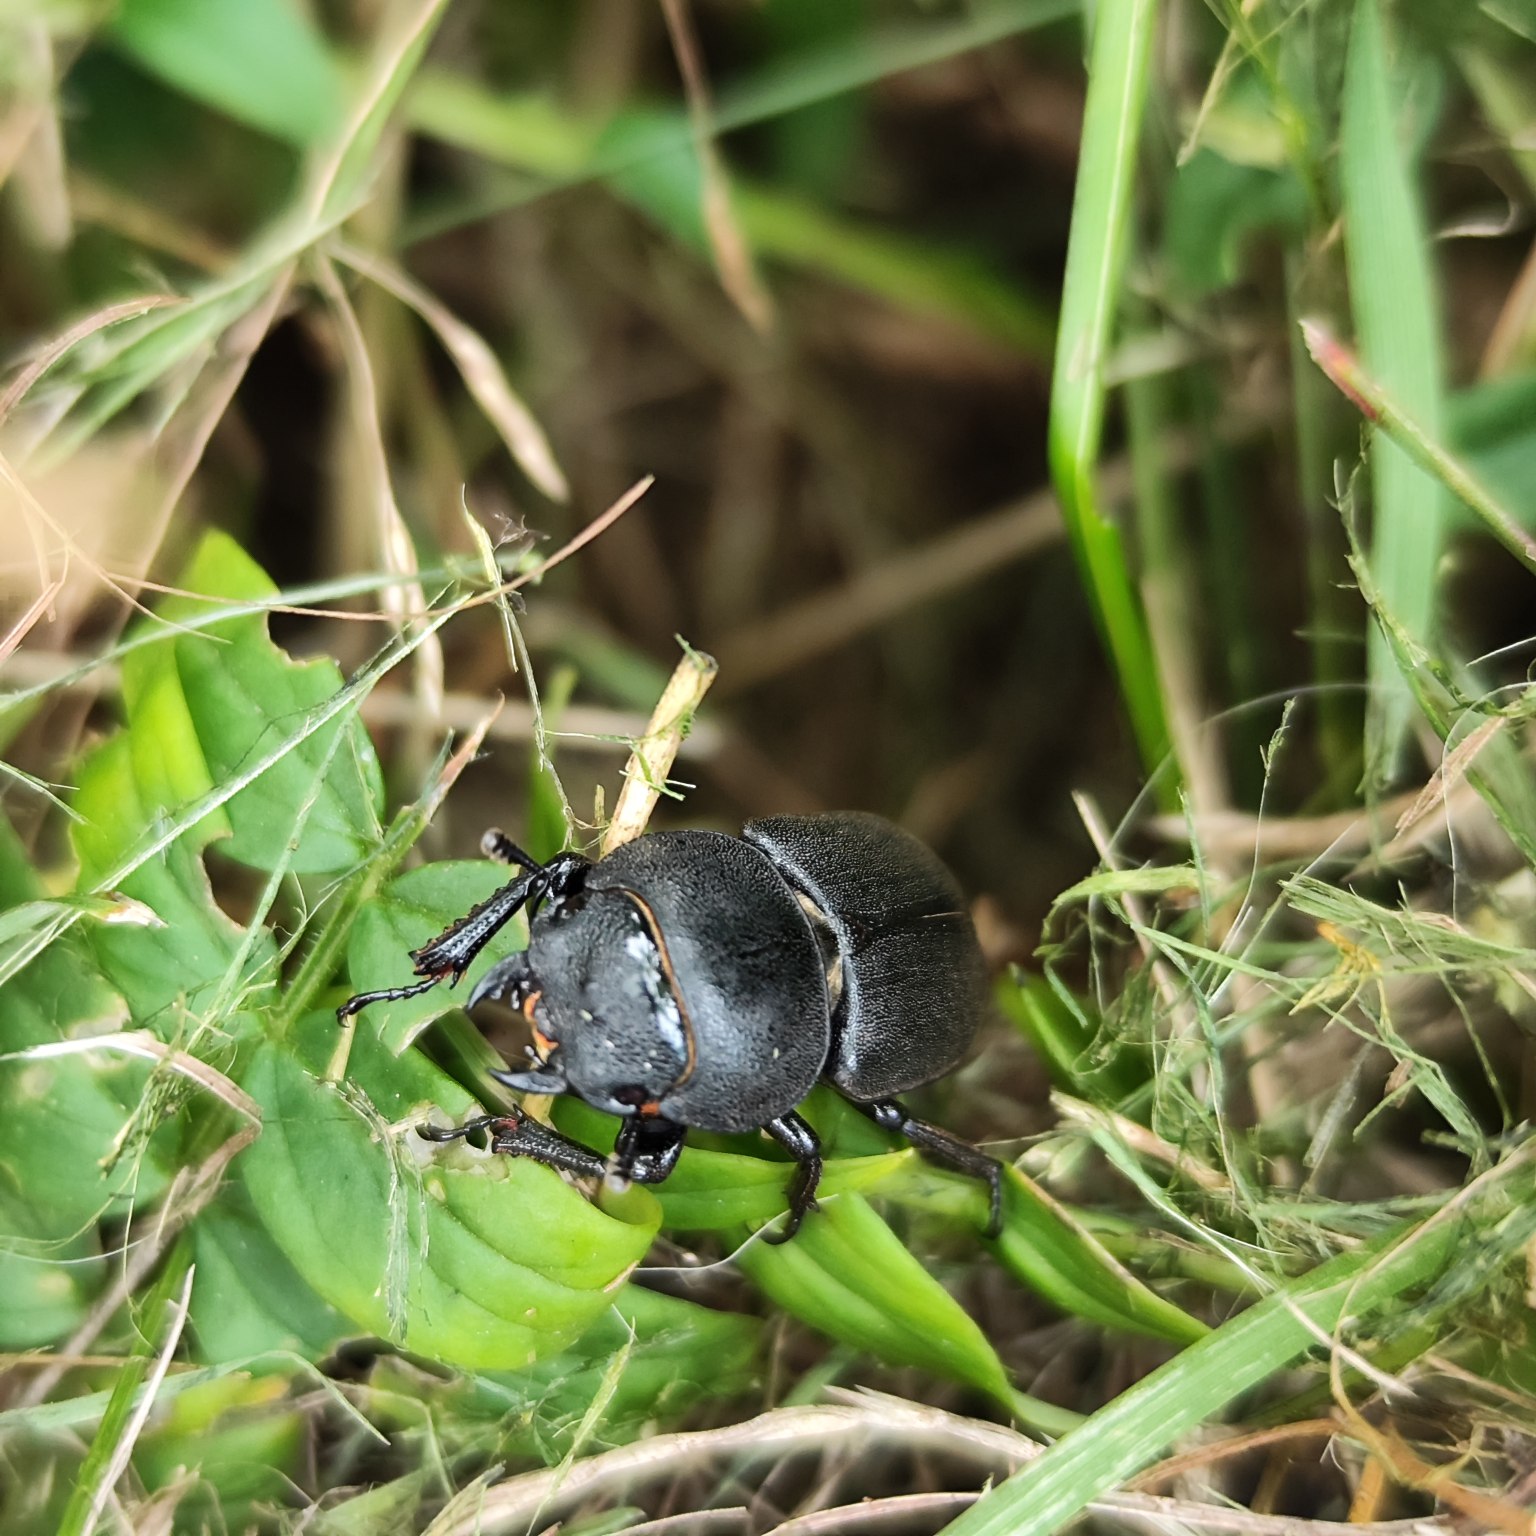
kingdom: Animalia
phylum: Arthropoda
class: Insecta
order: Coleoptera
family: Lucanidae
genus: Dorcus
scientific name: Dorcus parallelipipedus
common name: Bøghjort
